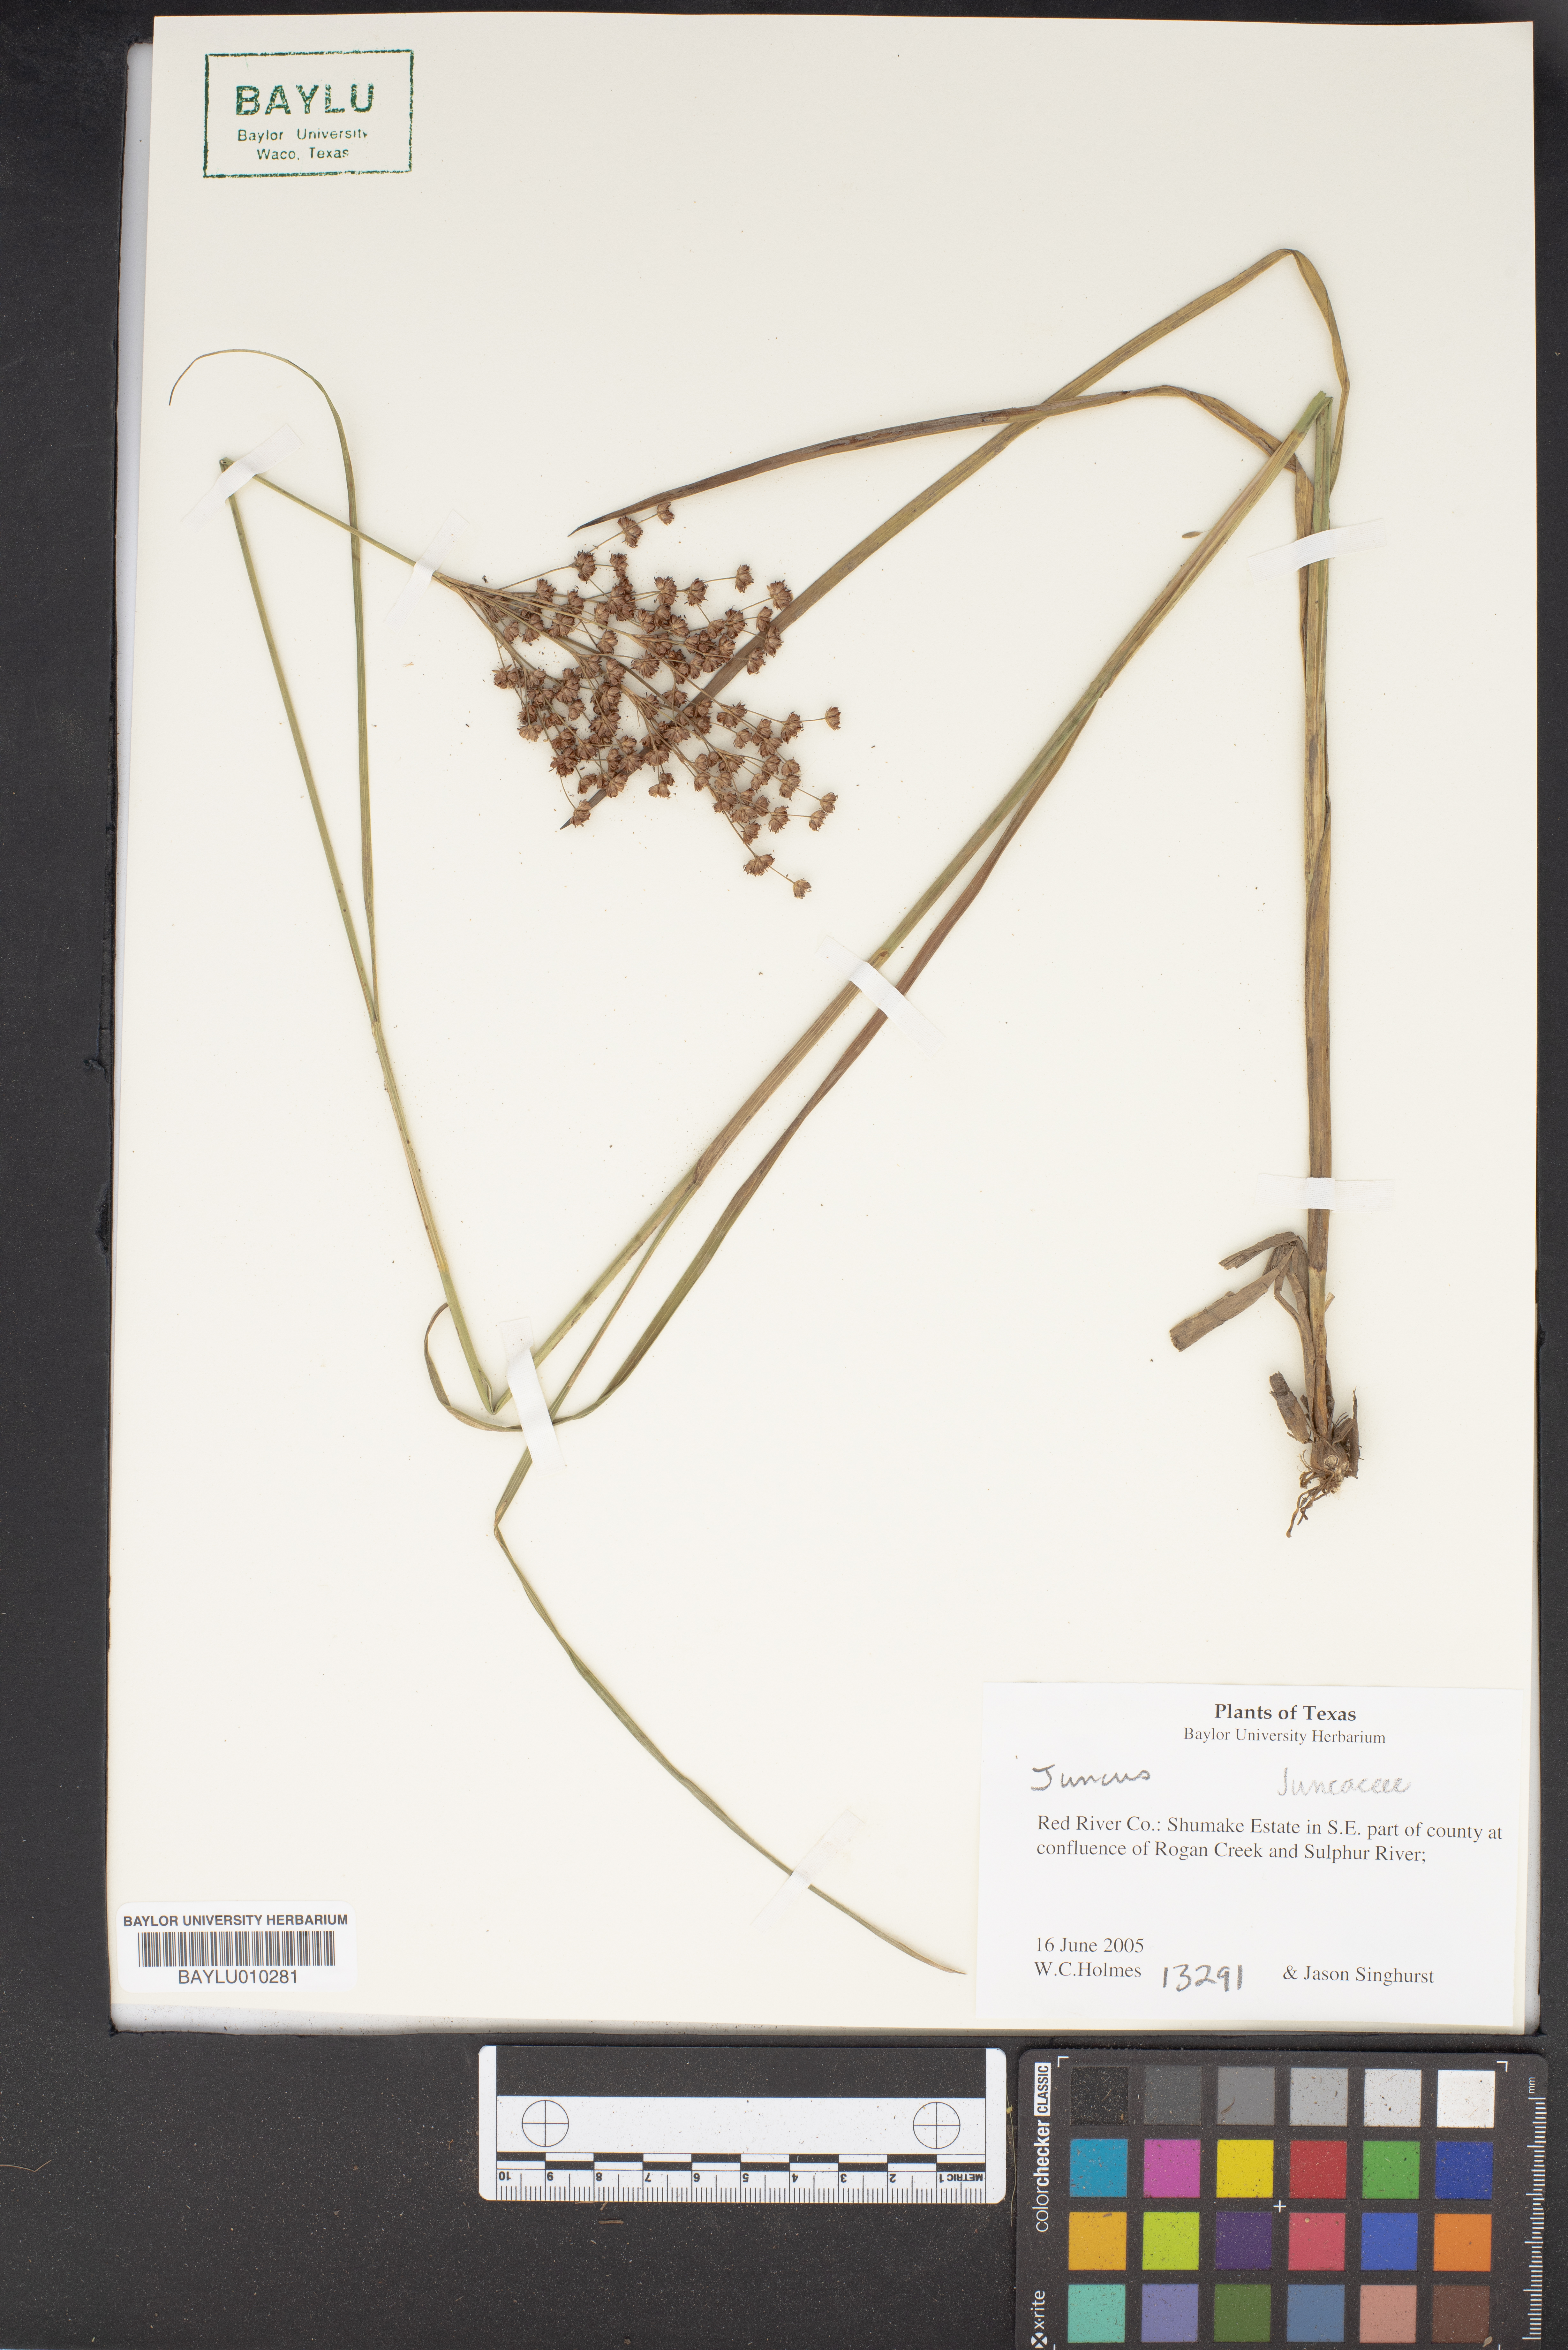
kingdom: Plantae
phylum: Tracheophyta
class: Liliopsida
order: Poales
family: Juncaceae
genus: Juncus
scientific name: Juncus
